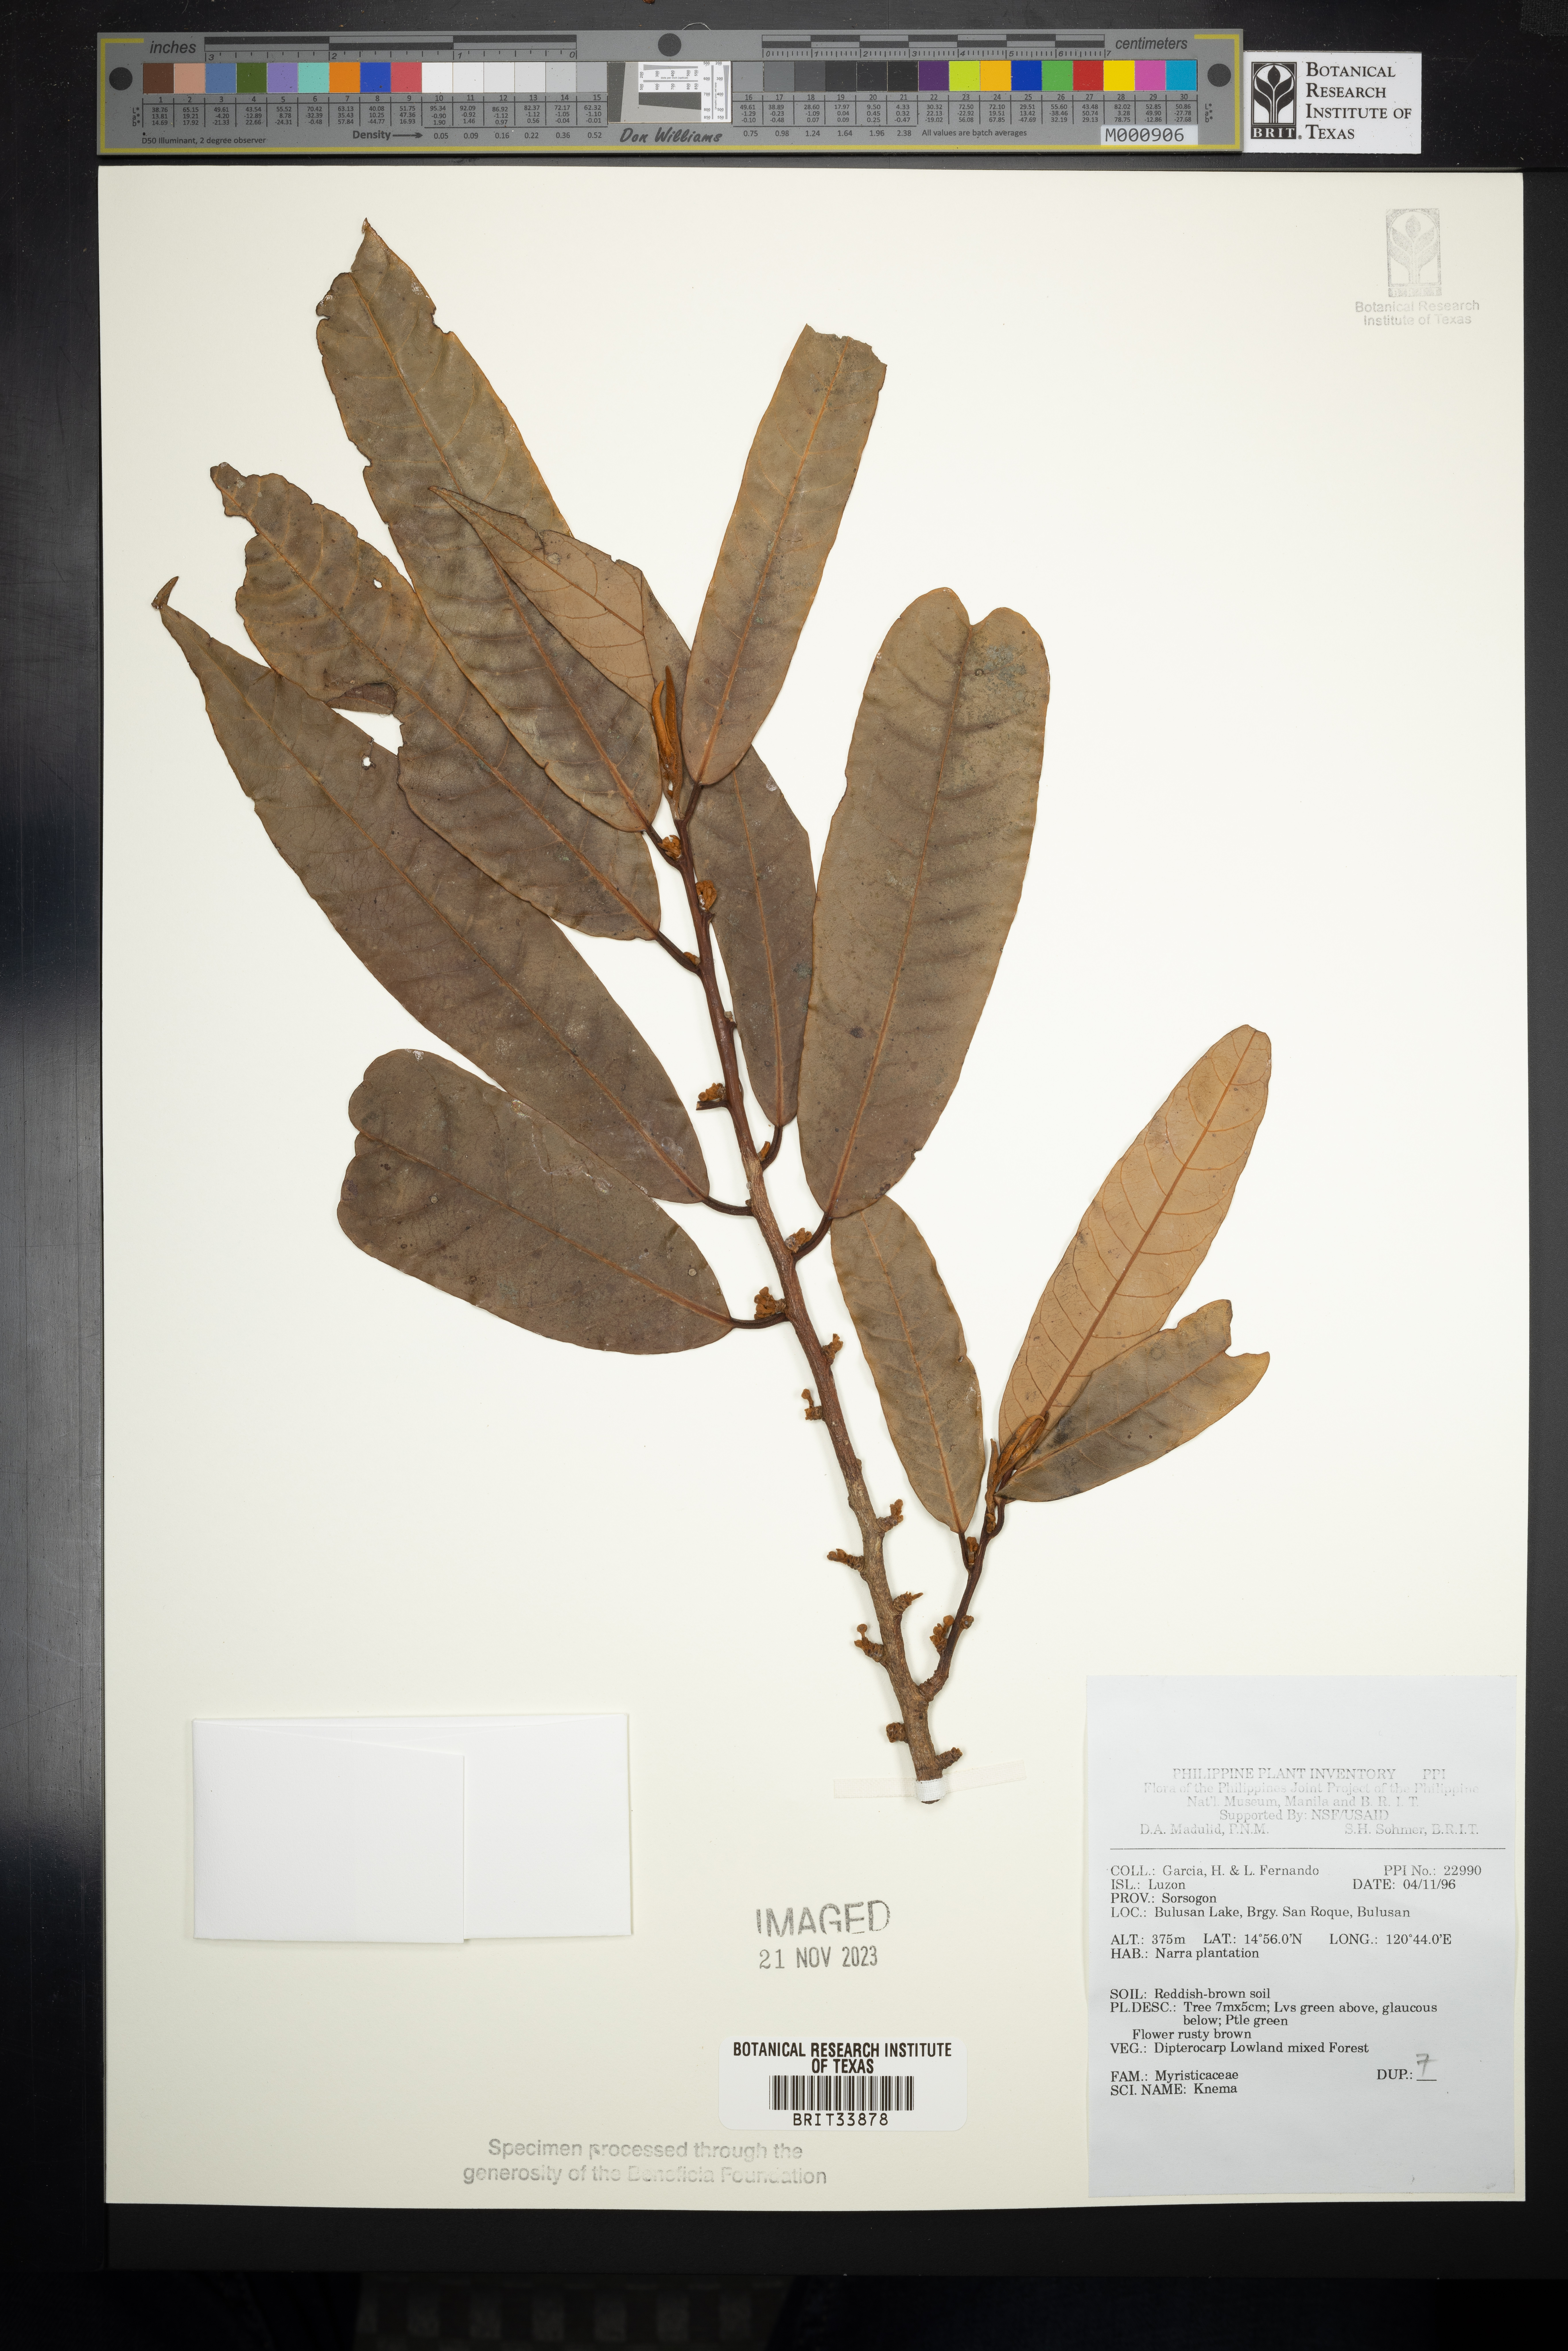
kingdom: Plantae
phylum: Tracheophyta
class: Magnoliopsida
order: Magnoliales
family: Myristicaceae
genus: Knema
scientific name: Knema
